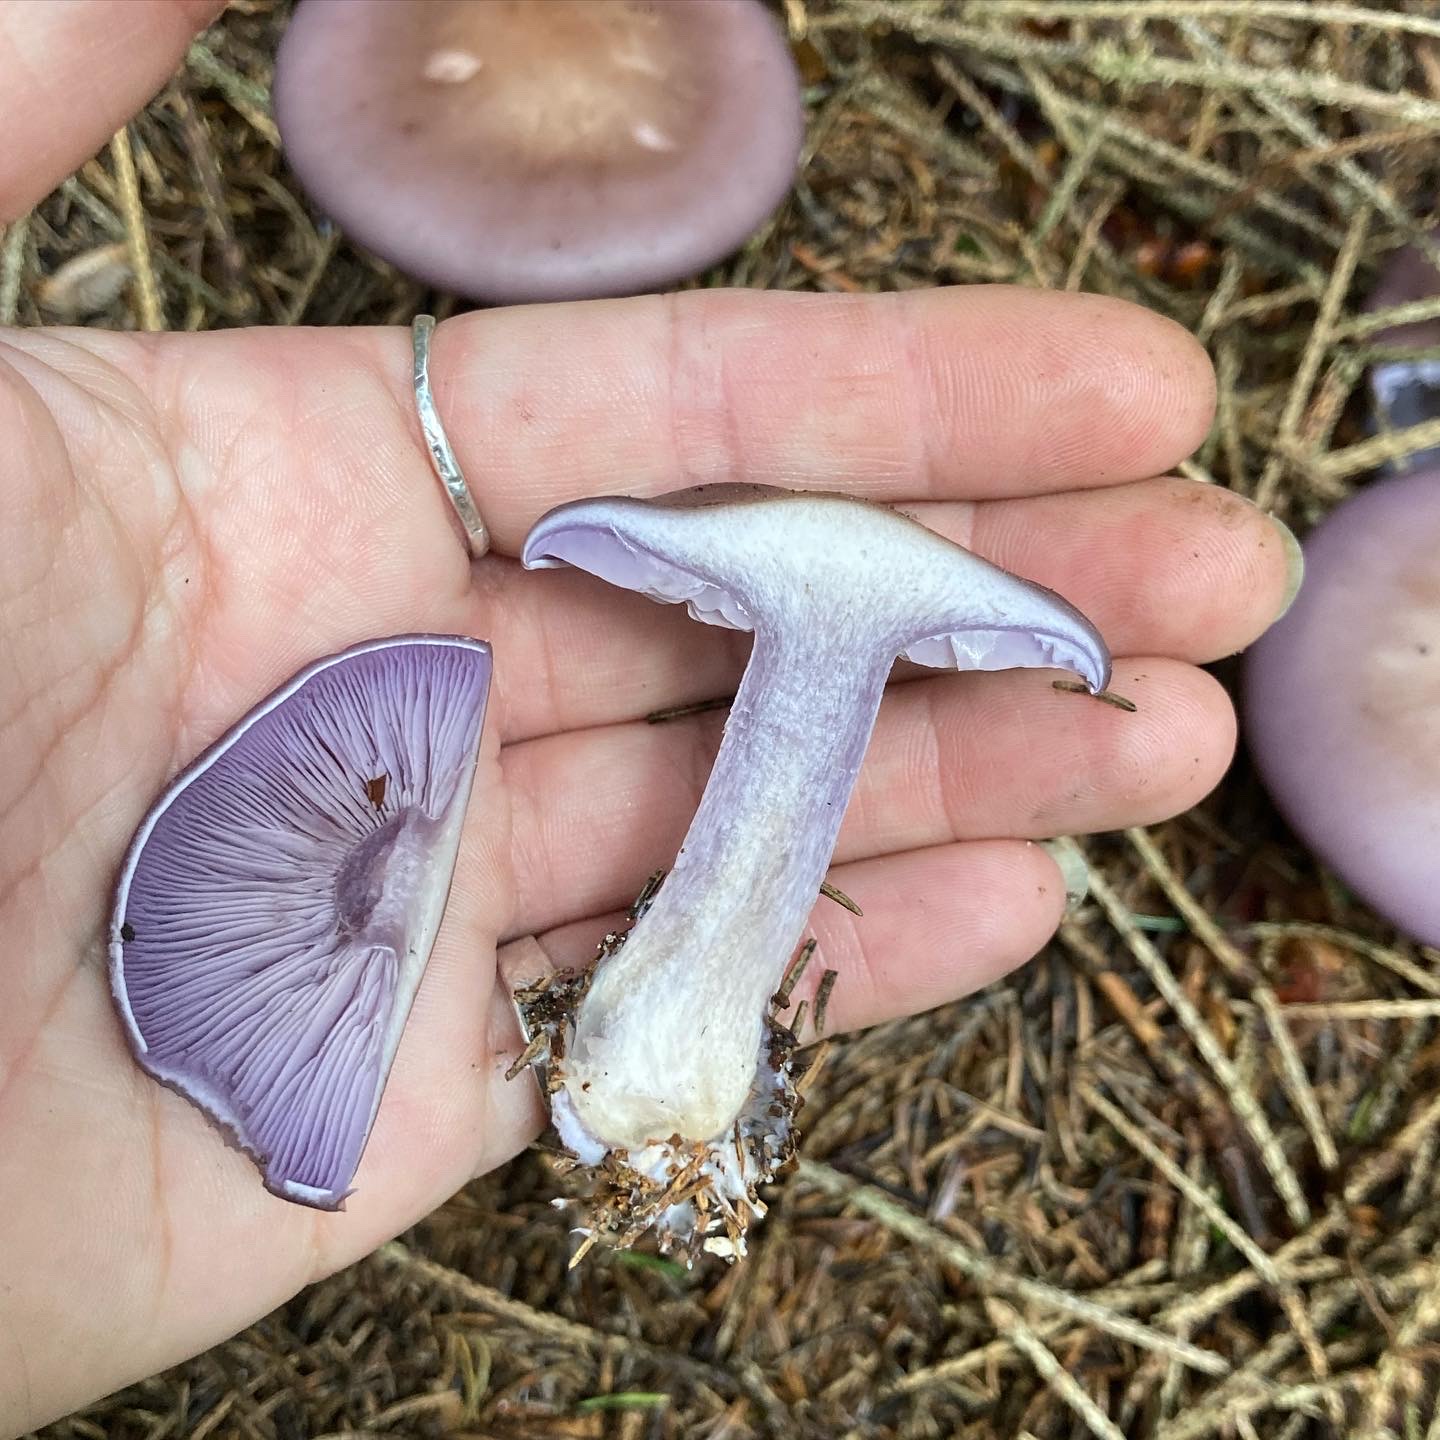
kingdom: Fungi
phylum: Basidiomycota
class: Agaricomycetes
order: Agaricales
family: Tricholomataceae
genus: Lepista
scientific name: Lepista nuda
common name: violet hekseringshat
